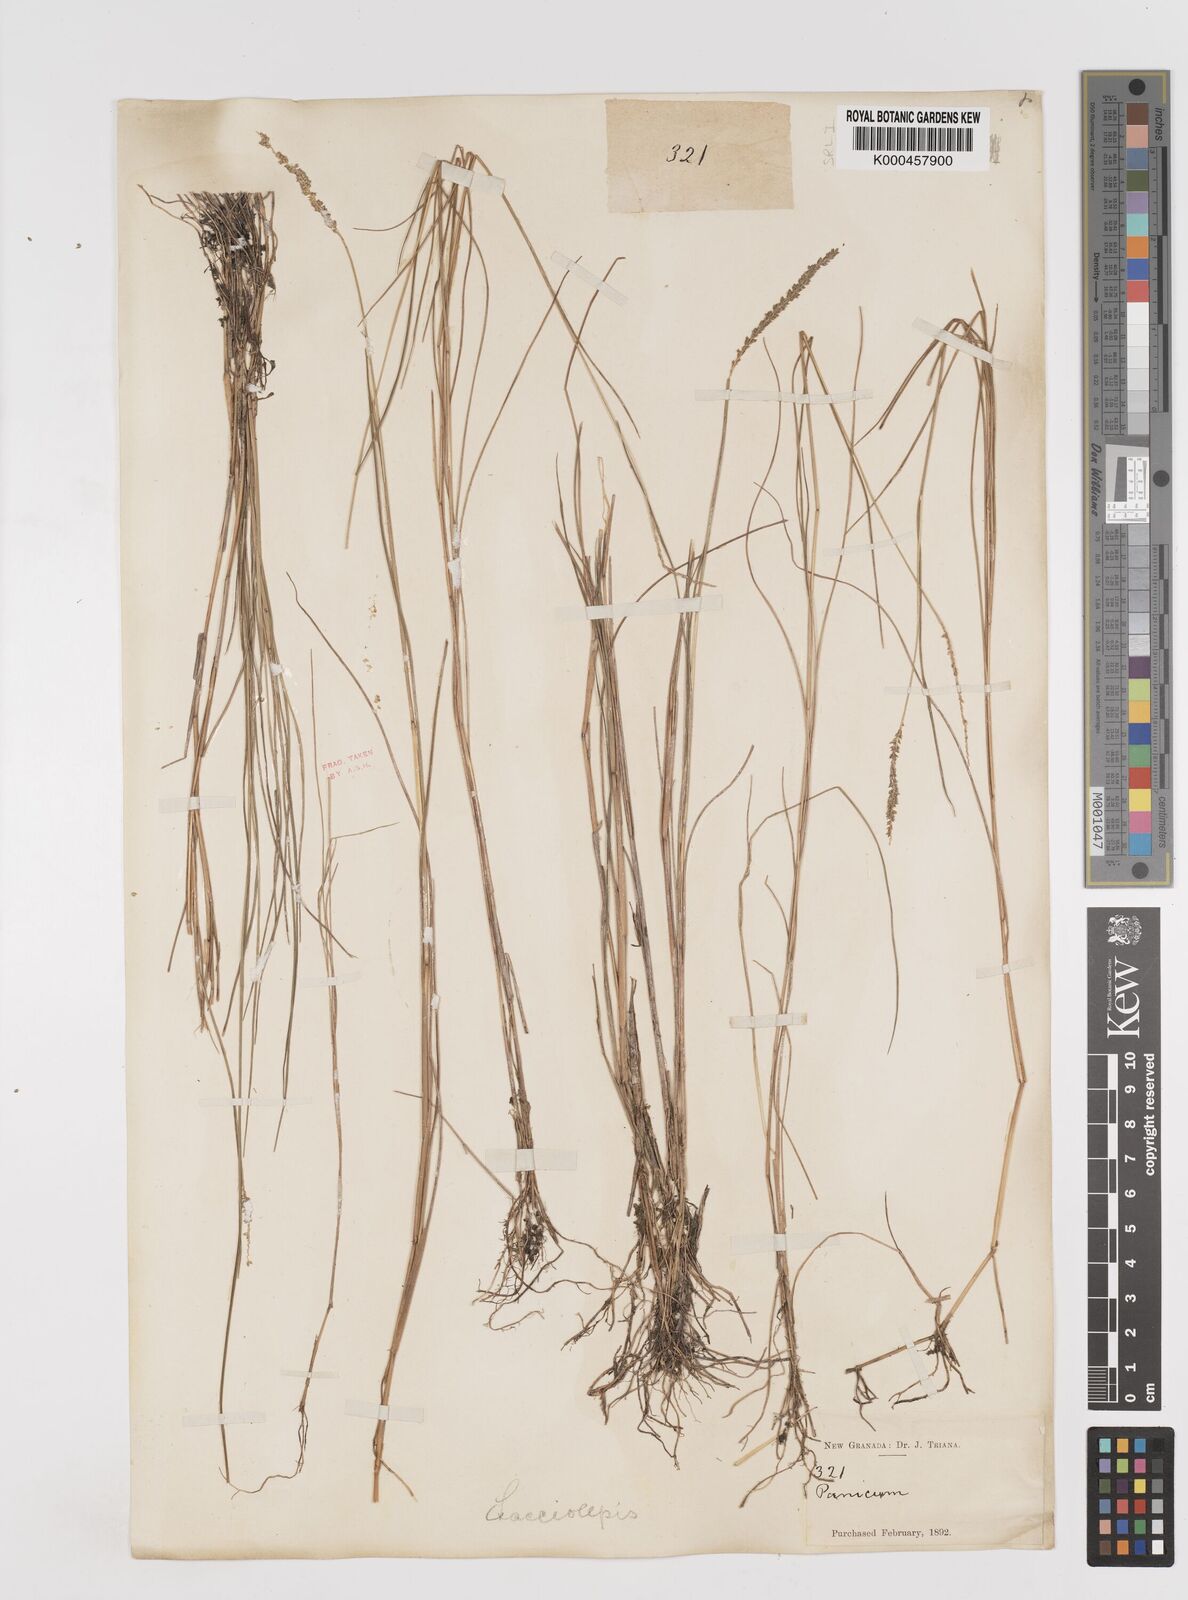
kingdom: Plantae
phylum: Tracheophyta
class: Liliopsida
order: Poales
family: Poaceae
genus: Sacciolepis
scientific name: Sacciolepis angustissima
